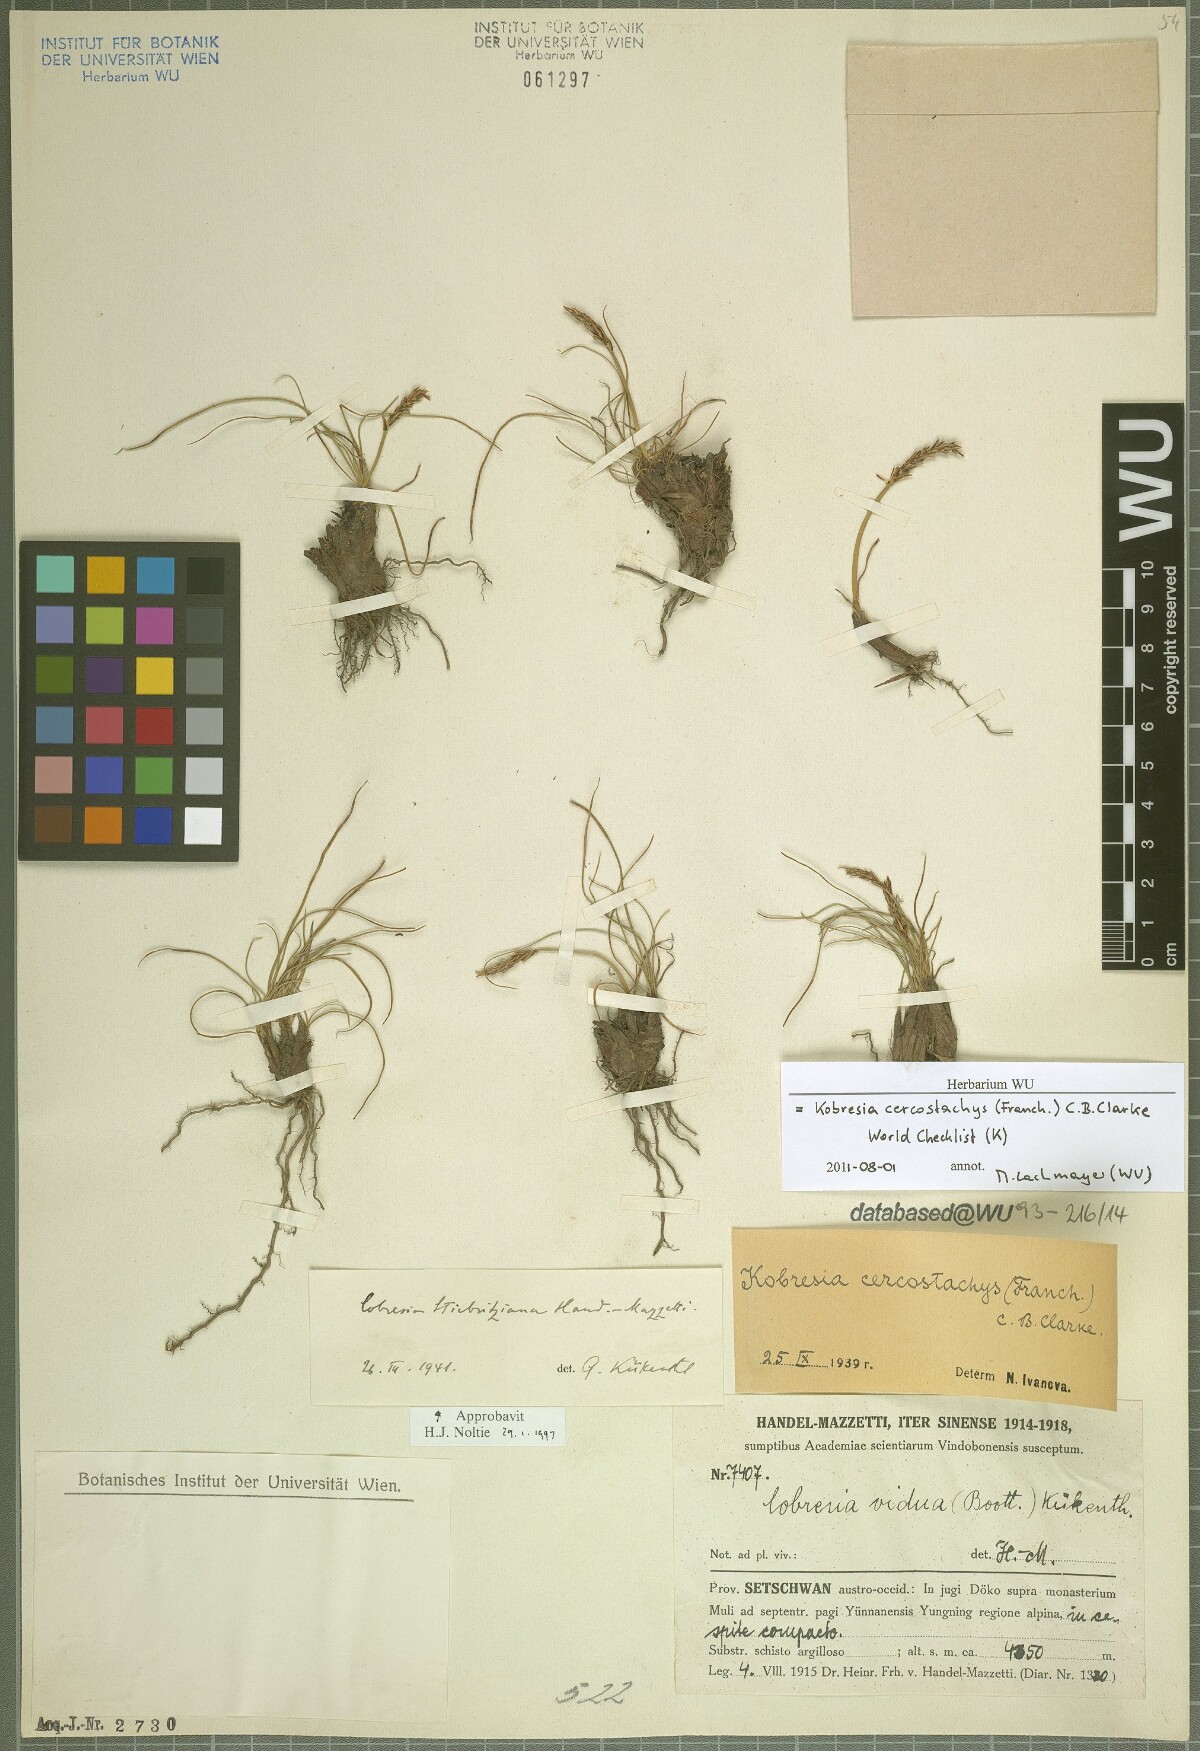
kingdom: Plantae
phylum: Tracheophyta
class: Liliopsida
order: Poales
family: Cyperaceae
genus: Carex
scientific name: Carex cercostachys
